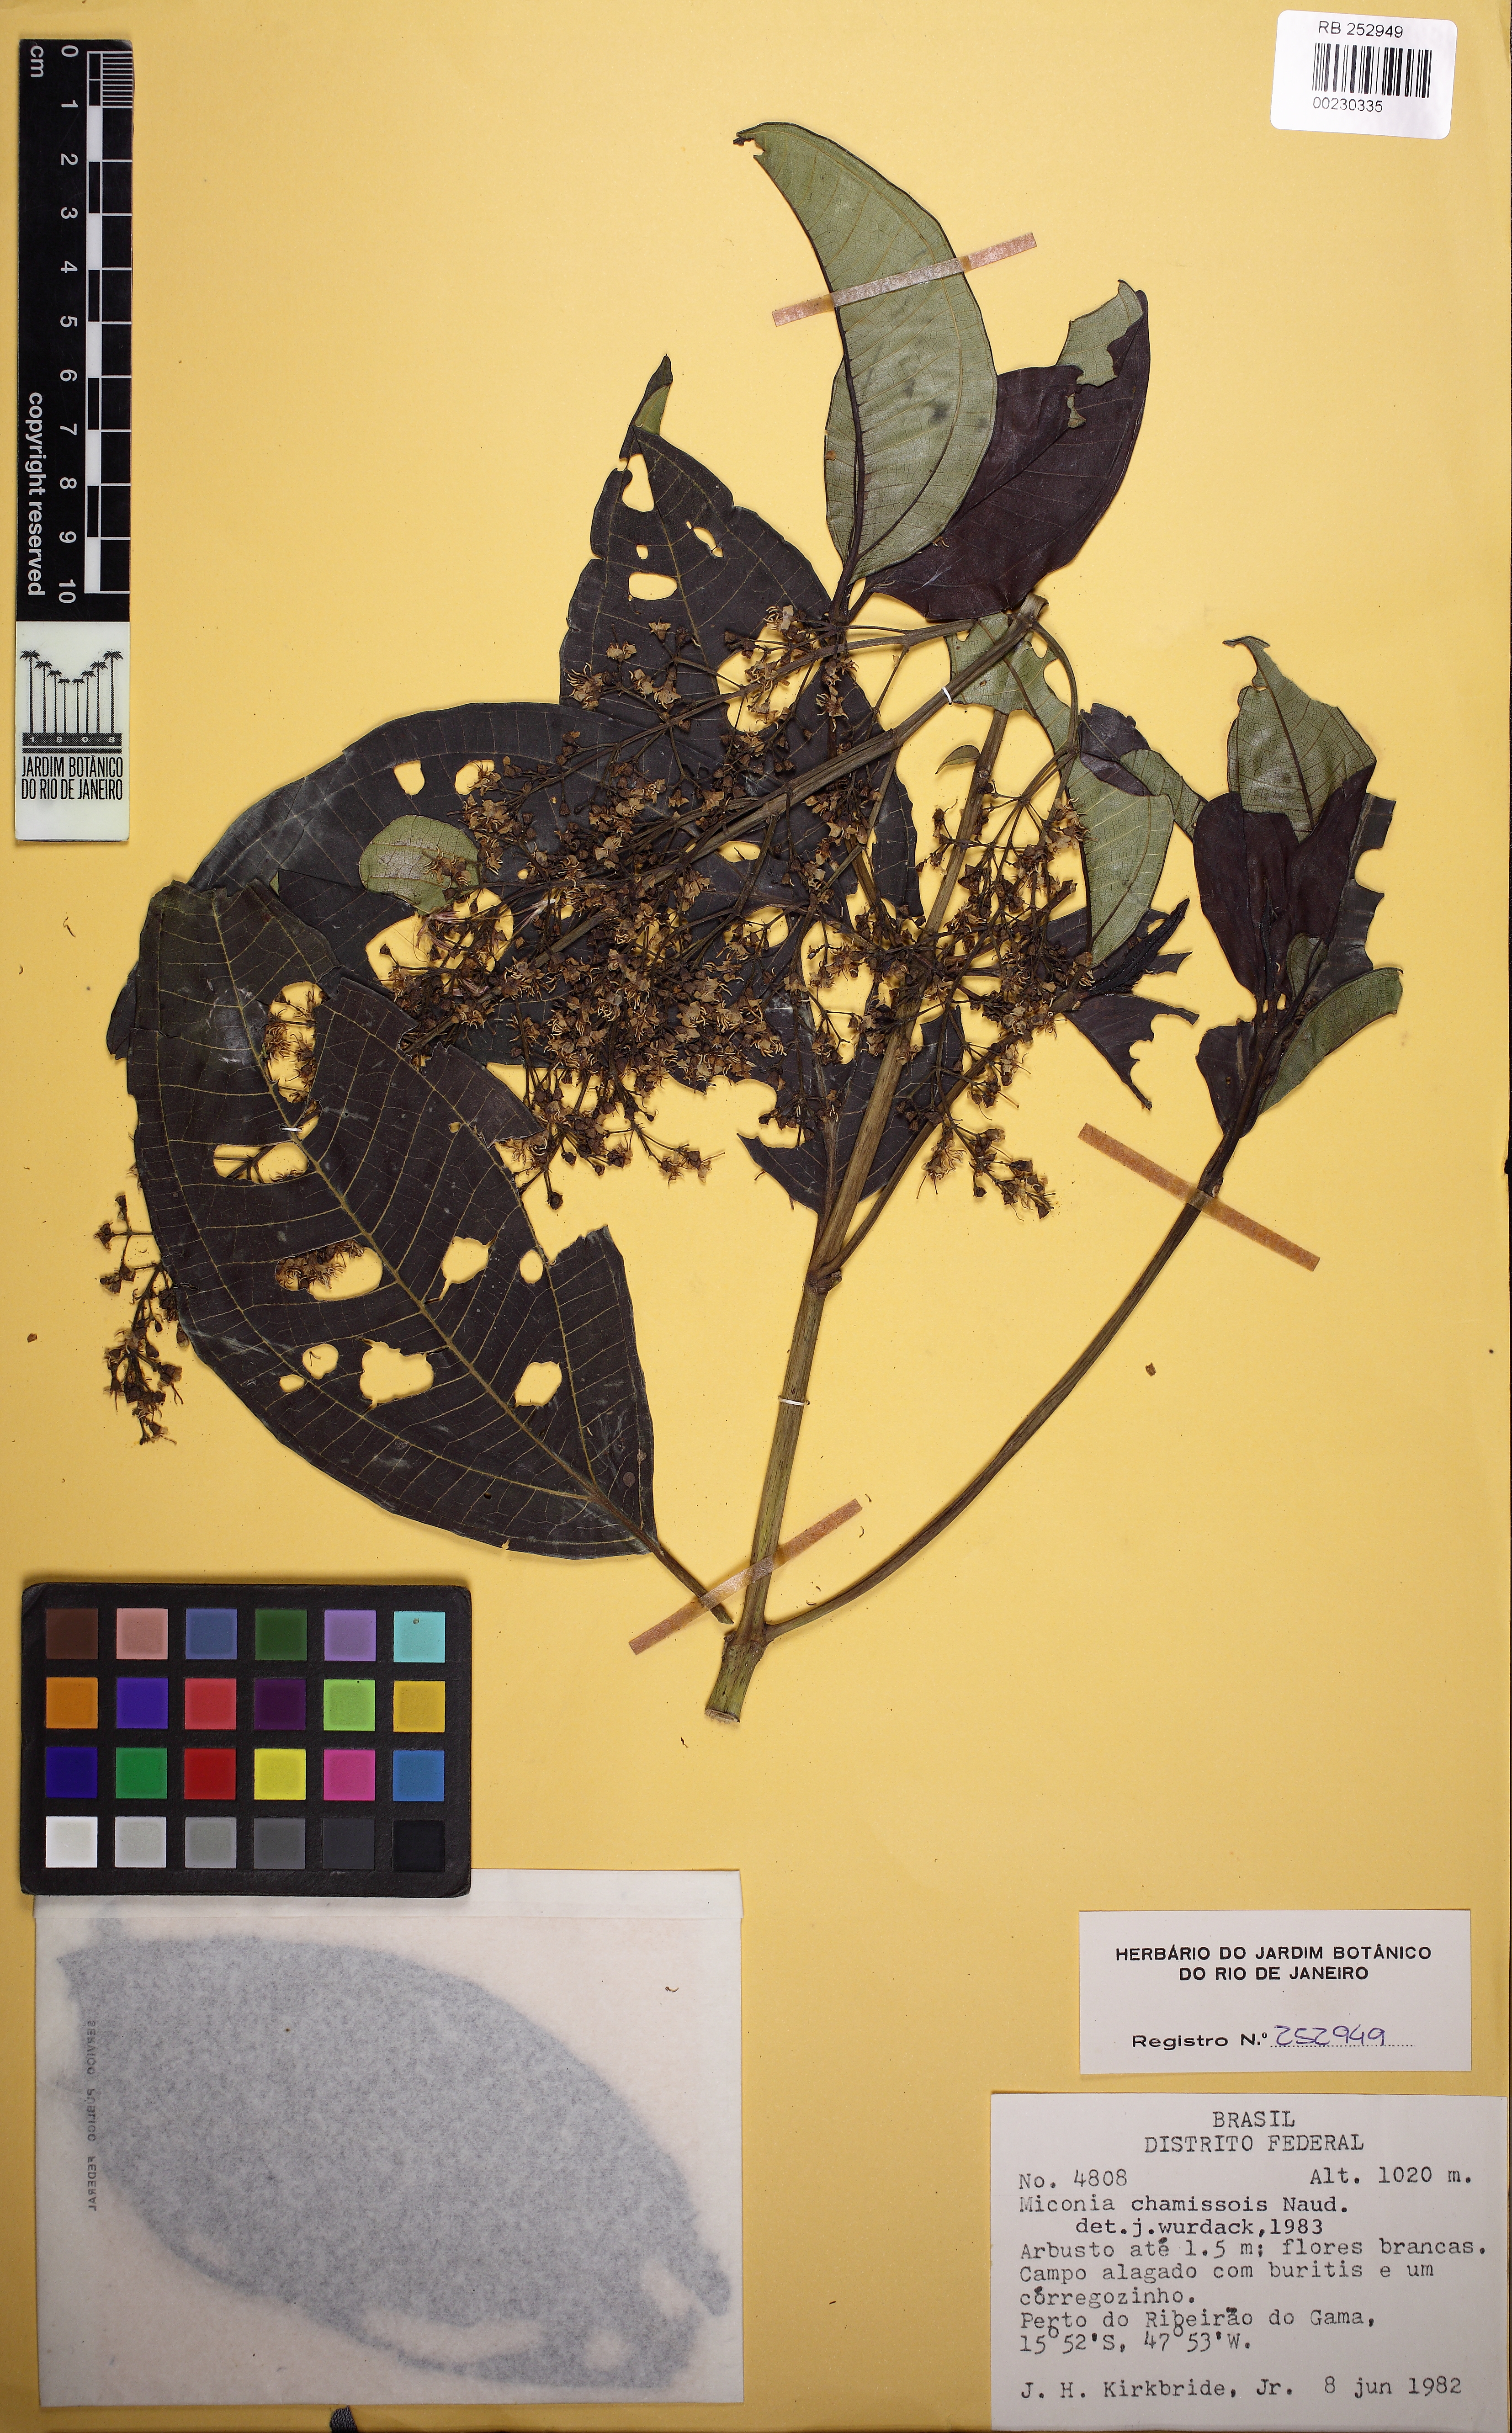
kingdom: Plantae
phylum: Tracheophyta
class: Magnoliopsida
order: Myrtales
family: Melastomataceae
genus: Miconia
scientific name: Miconia chamissois
